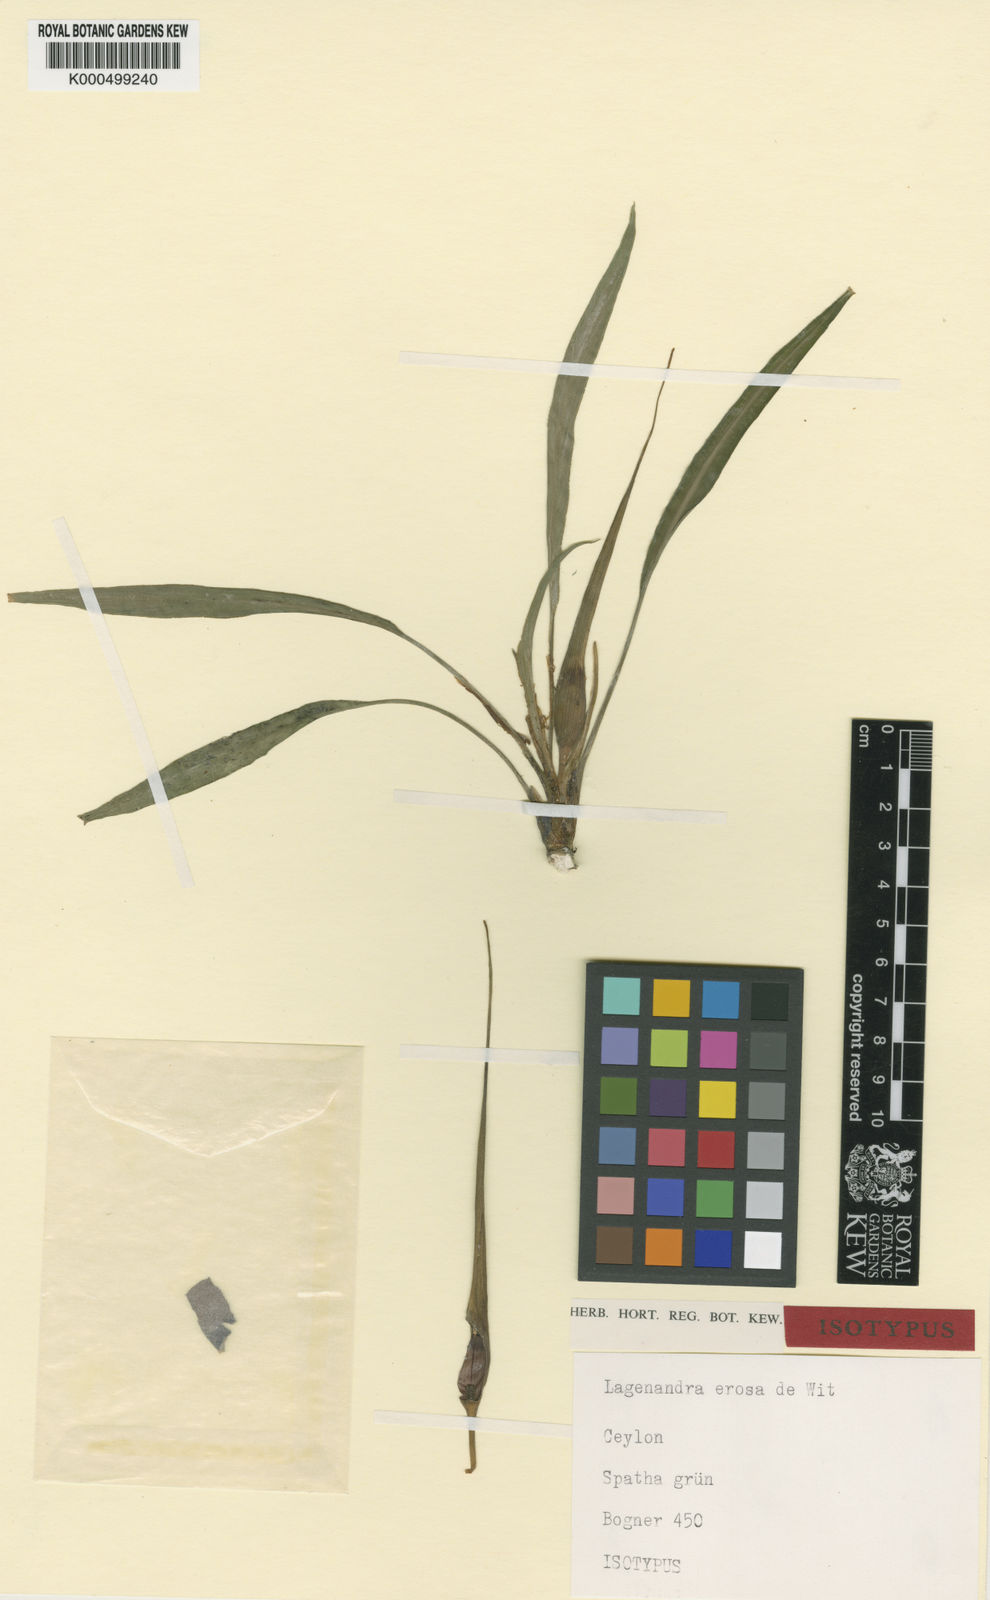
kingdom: Plantae
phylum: Tracheophyta
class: Liliopsida
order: Alismatales
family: Araceae
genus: Lagenandra
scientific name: Lagenandra erosa
